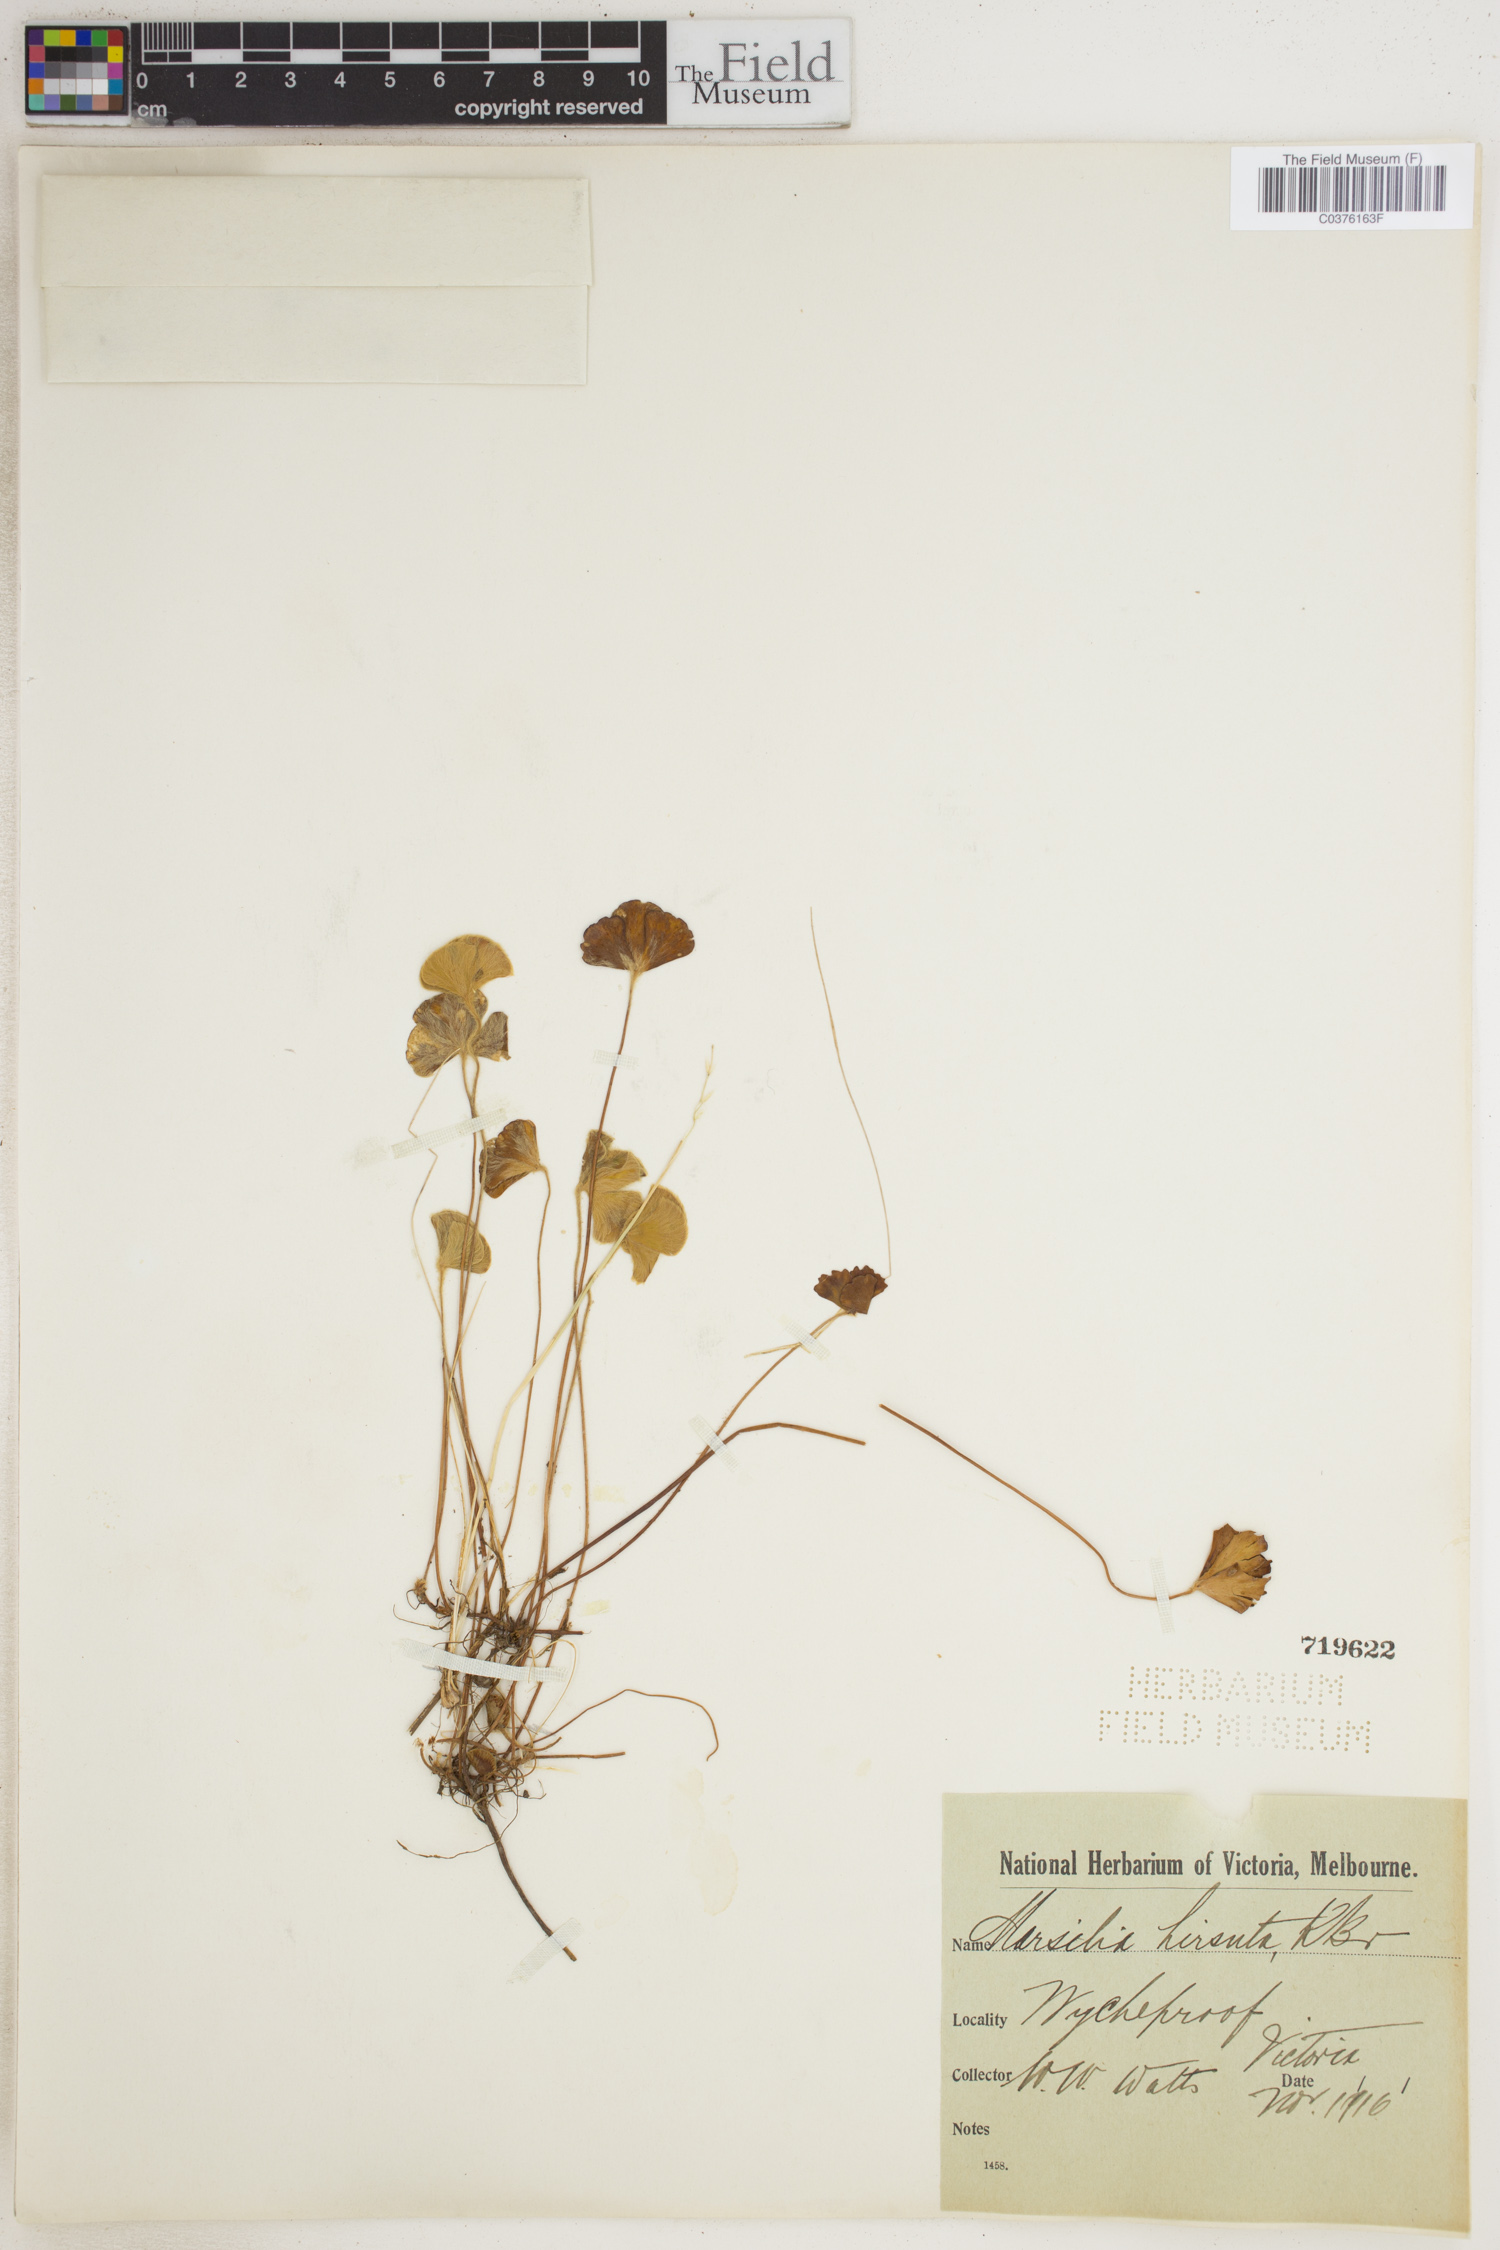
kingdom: Plantae
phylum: Tracheophyta
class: Polypodiopsida
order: Salviniales
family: Marsileaceae
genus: Marsilea
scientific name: Marsilea hirsuta
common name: Rough waterclover
